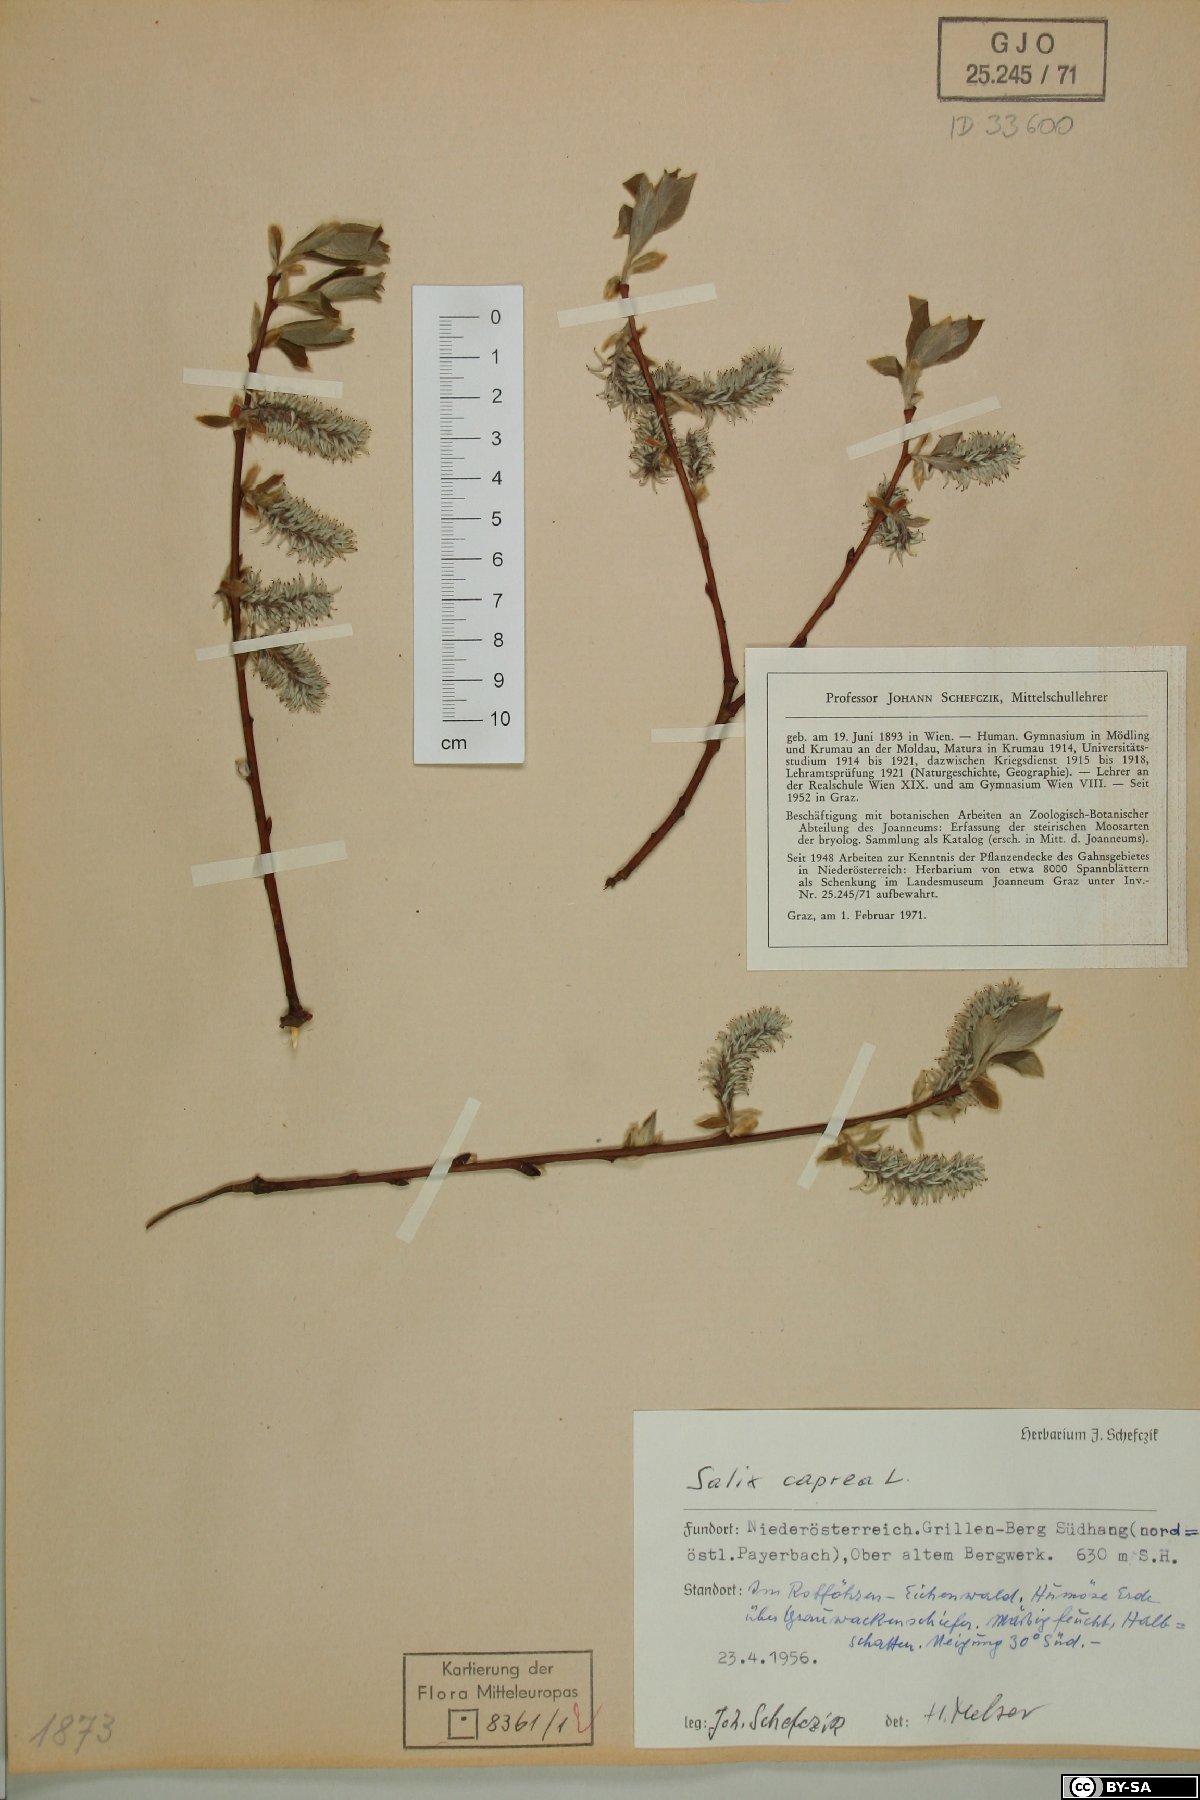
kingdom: Plantae
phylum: Tracheophyta
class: Magnoliopsida
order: Malpighiales
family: Salicaceae
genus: Salix
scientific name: Salix caprea
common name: Goat willow
